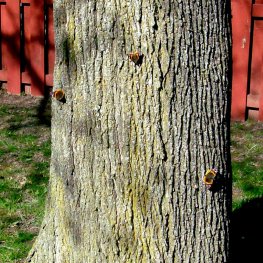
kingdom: Animalia
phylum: Arthropoda
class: Insecta
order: Lepidoptera
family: Nymphalidae
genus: Vanessa
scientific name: Vanessa atalanta
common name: Red Admiral
